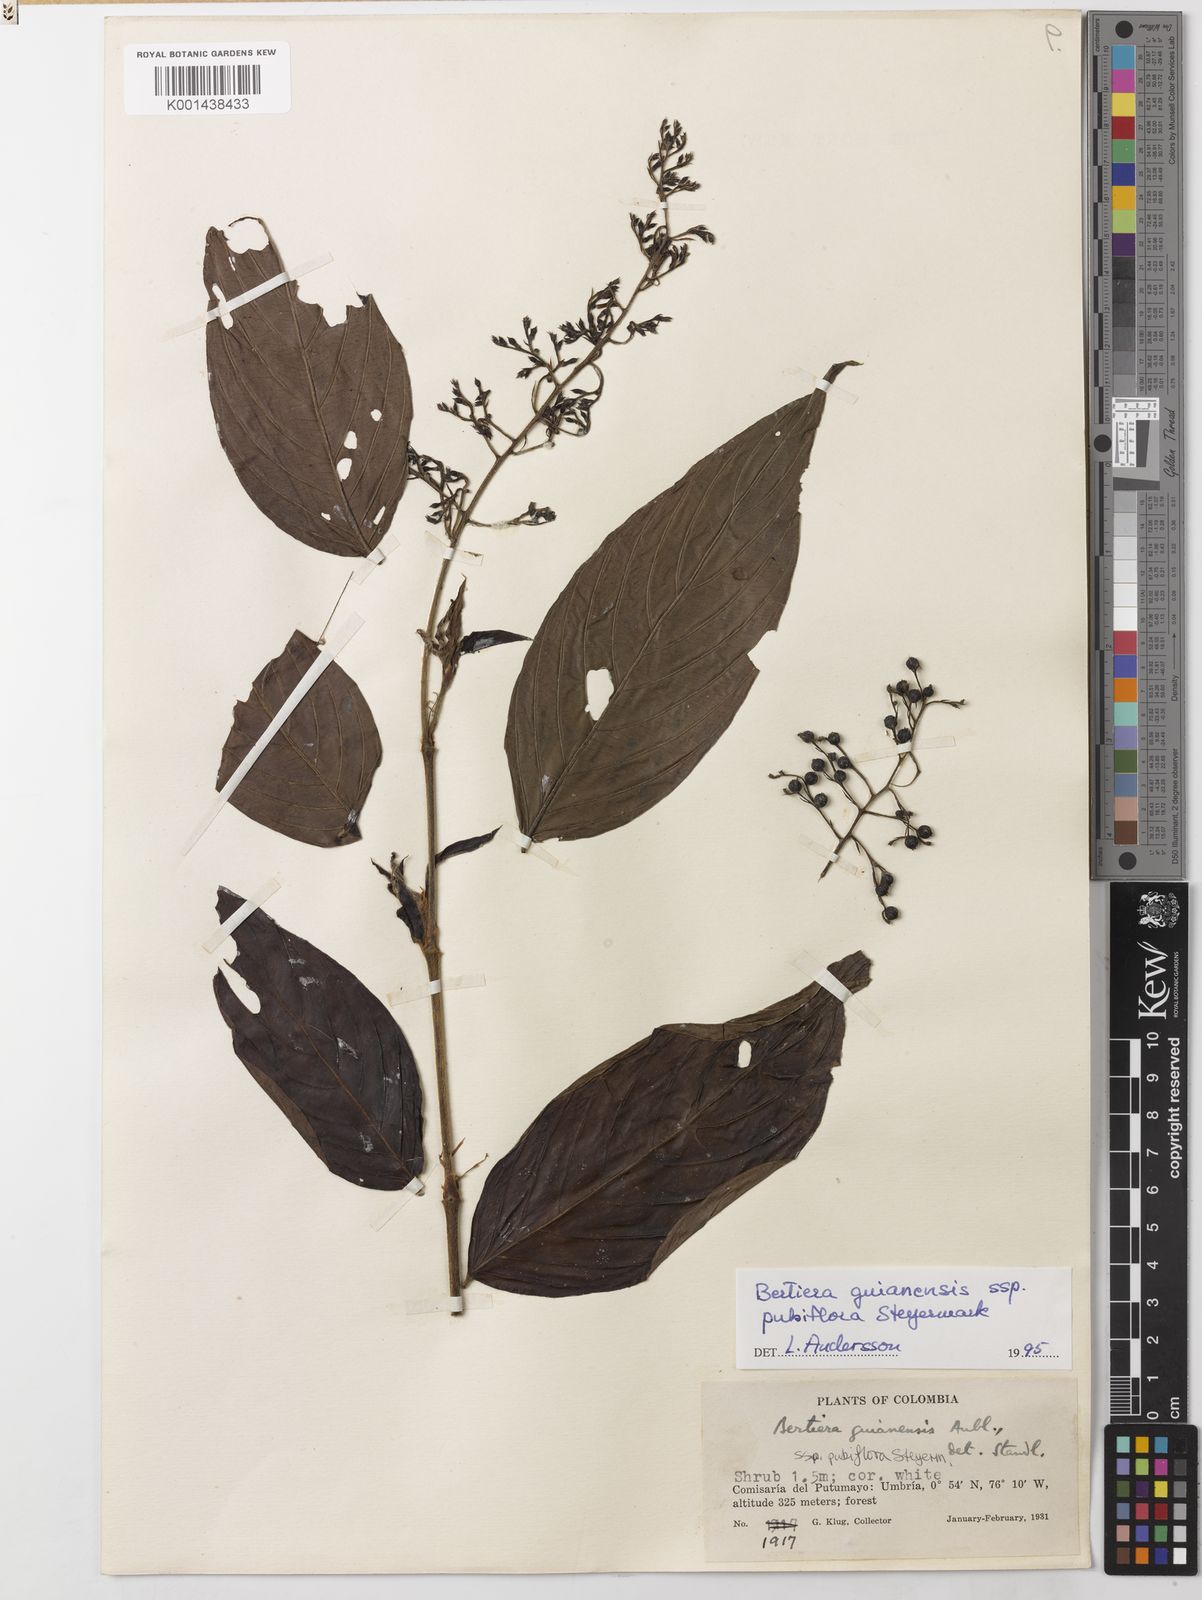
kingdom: Plantae
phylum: Tracheophyta
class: Magnoliopsida
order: Gentianales
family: Rubiaceae
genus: Bertiera
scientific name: Bertiera angustifolia
